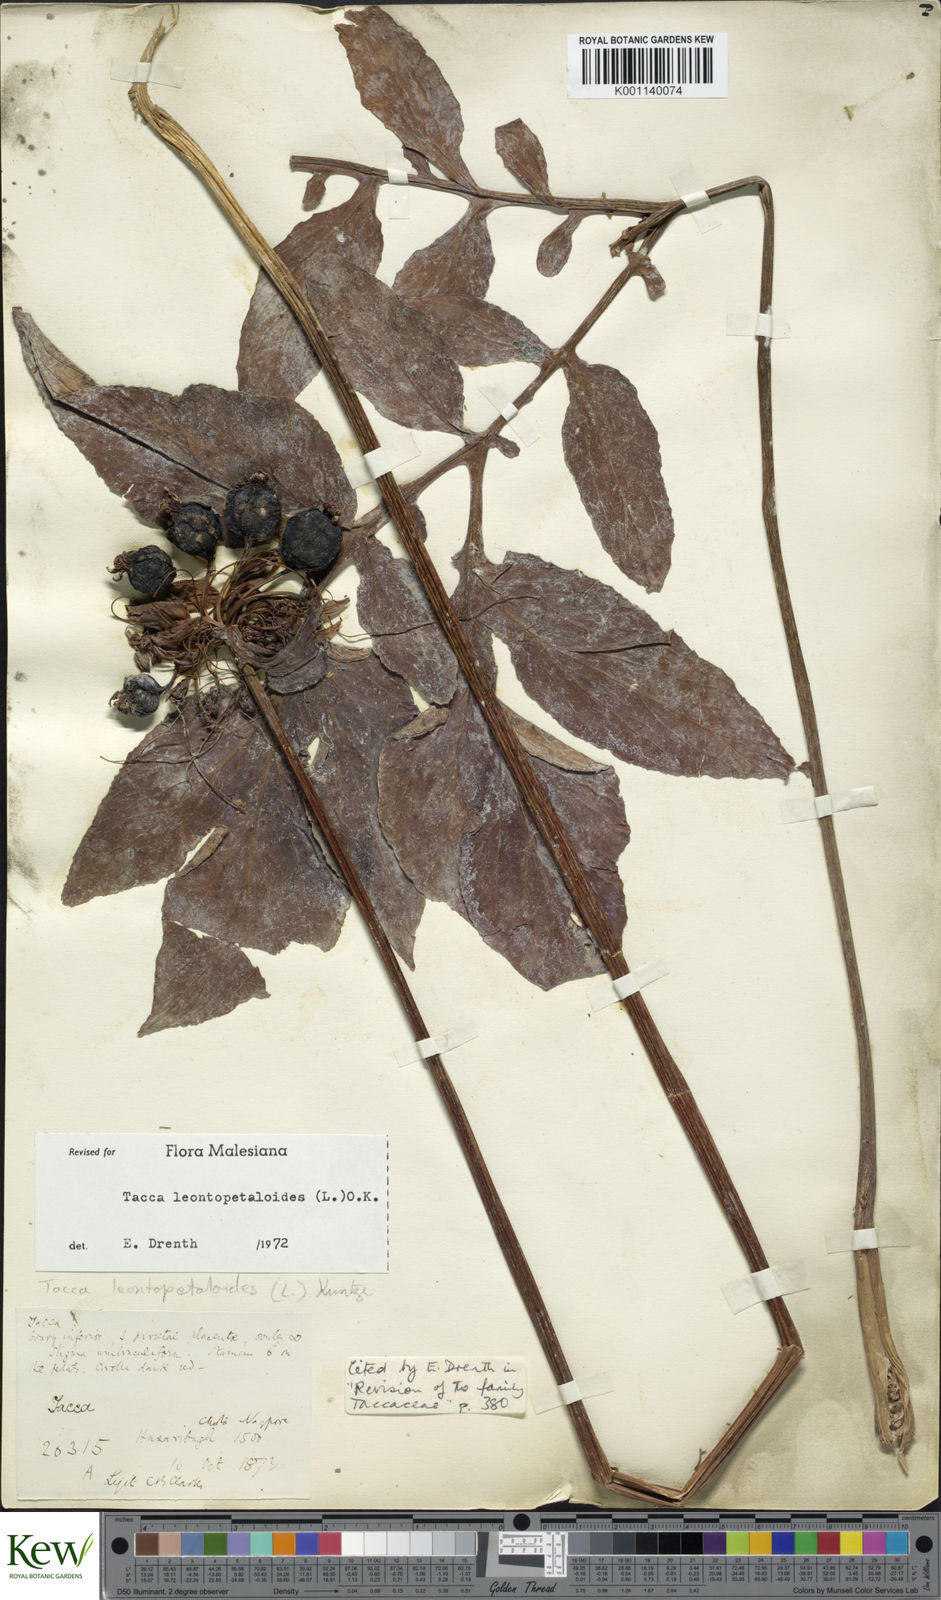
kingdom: Plantae
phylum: Tracheophyta
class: Liliopsida
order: Dioscoreales
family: Dioscoreaceae
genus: Tacca
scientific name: Tacca leontopetaloides
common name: Arrowroot
